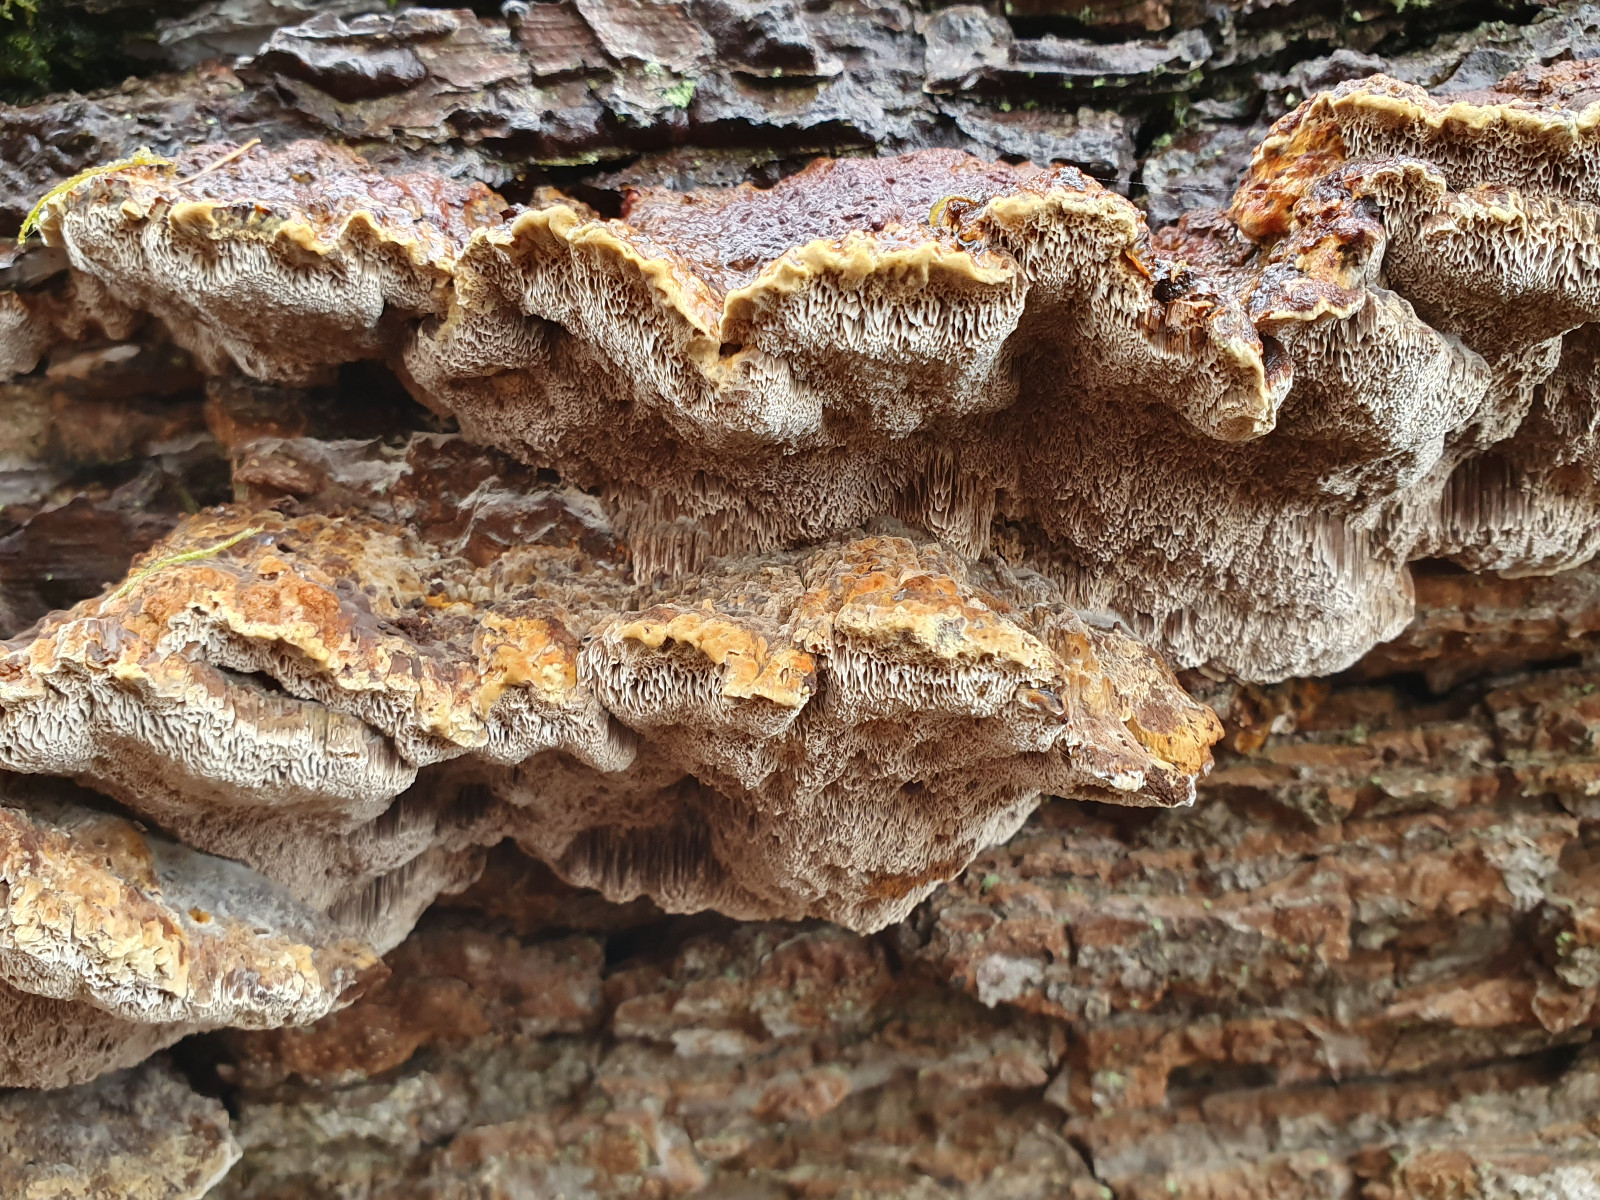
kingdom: Fungi
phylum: Basidiomycota
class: Agaricomycetes
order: Hymenochaetales
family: Hymenochaetaceae
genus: Xanthoporia
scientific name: Xanthoporia radiata
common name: elle-spejlporesvamp
